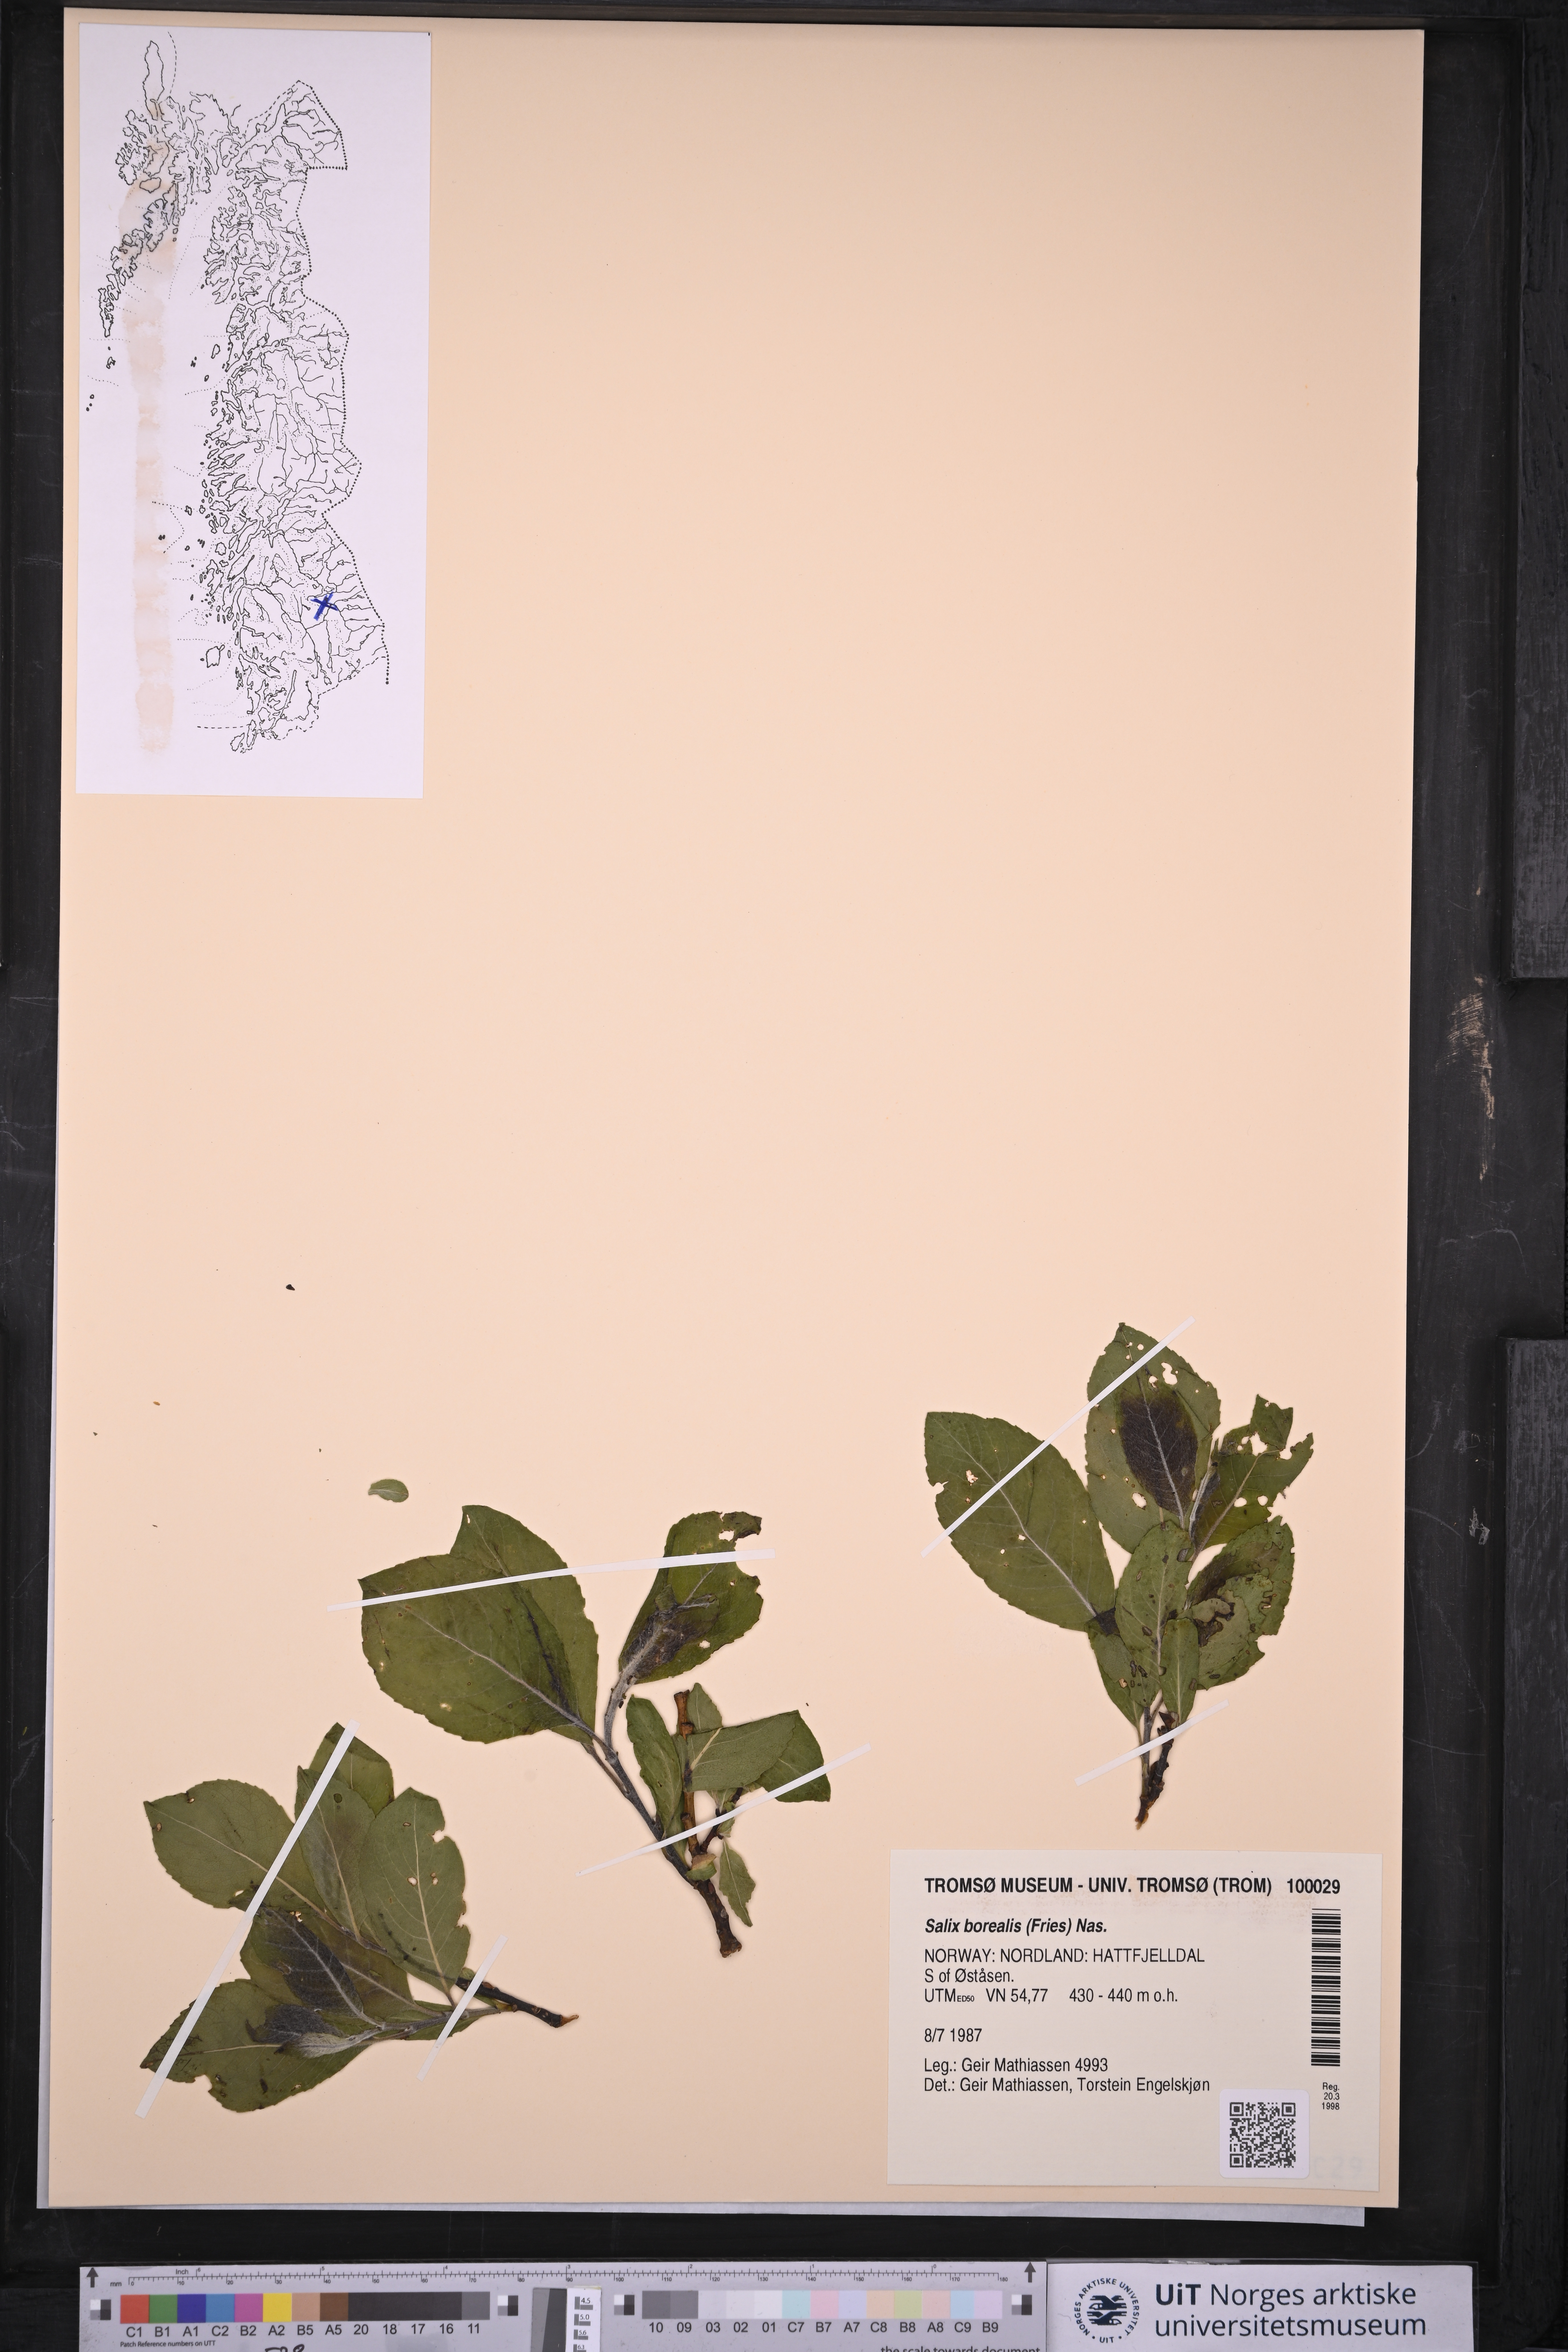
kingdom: Plantae
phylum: Tracheophyta
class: Magnoliopsida
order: Malpighiales
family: Salicaceae
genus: Salix
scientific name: Salix myrsinifolia
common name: Dark-leaved willow
